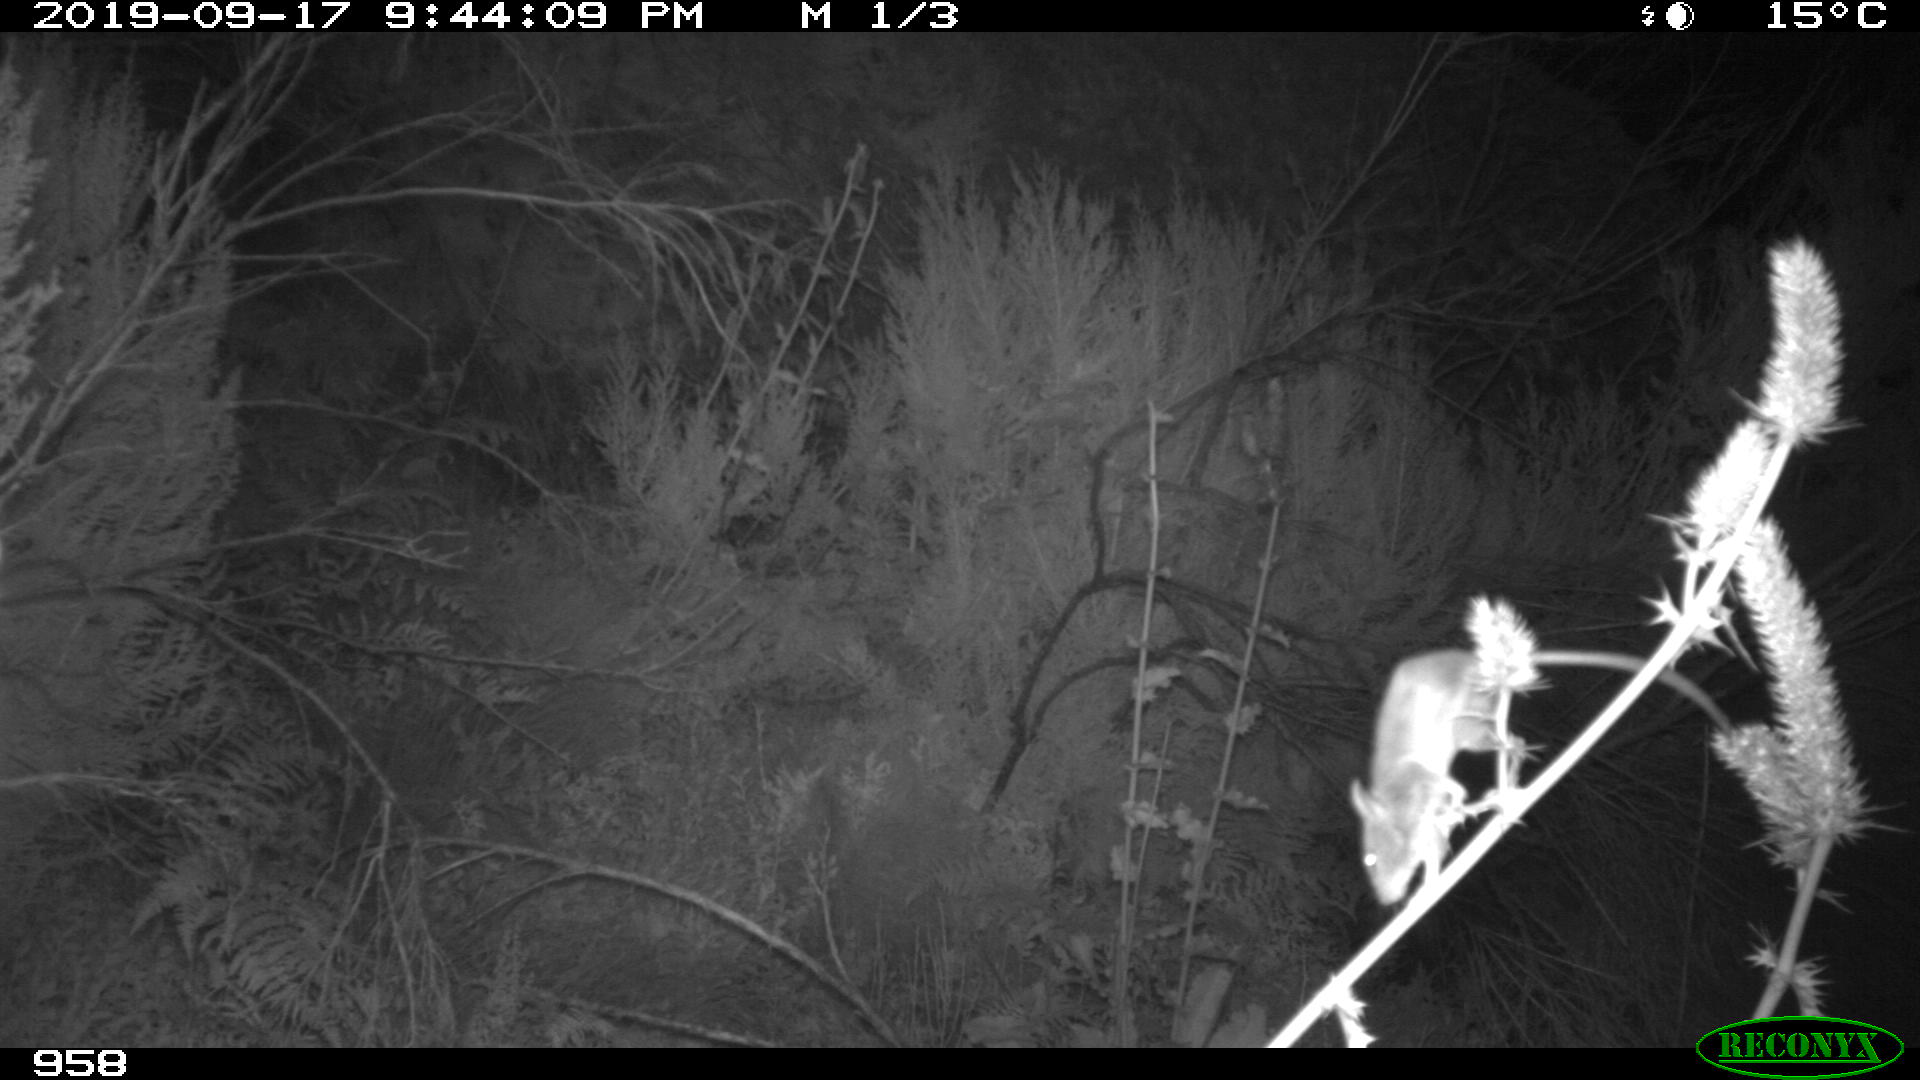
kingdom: Animalia
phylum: Chordata
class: Mammalia
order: Rodentia
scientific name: Rodentia
